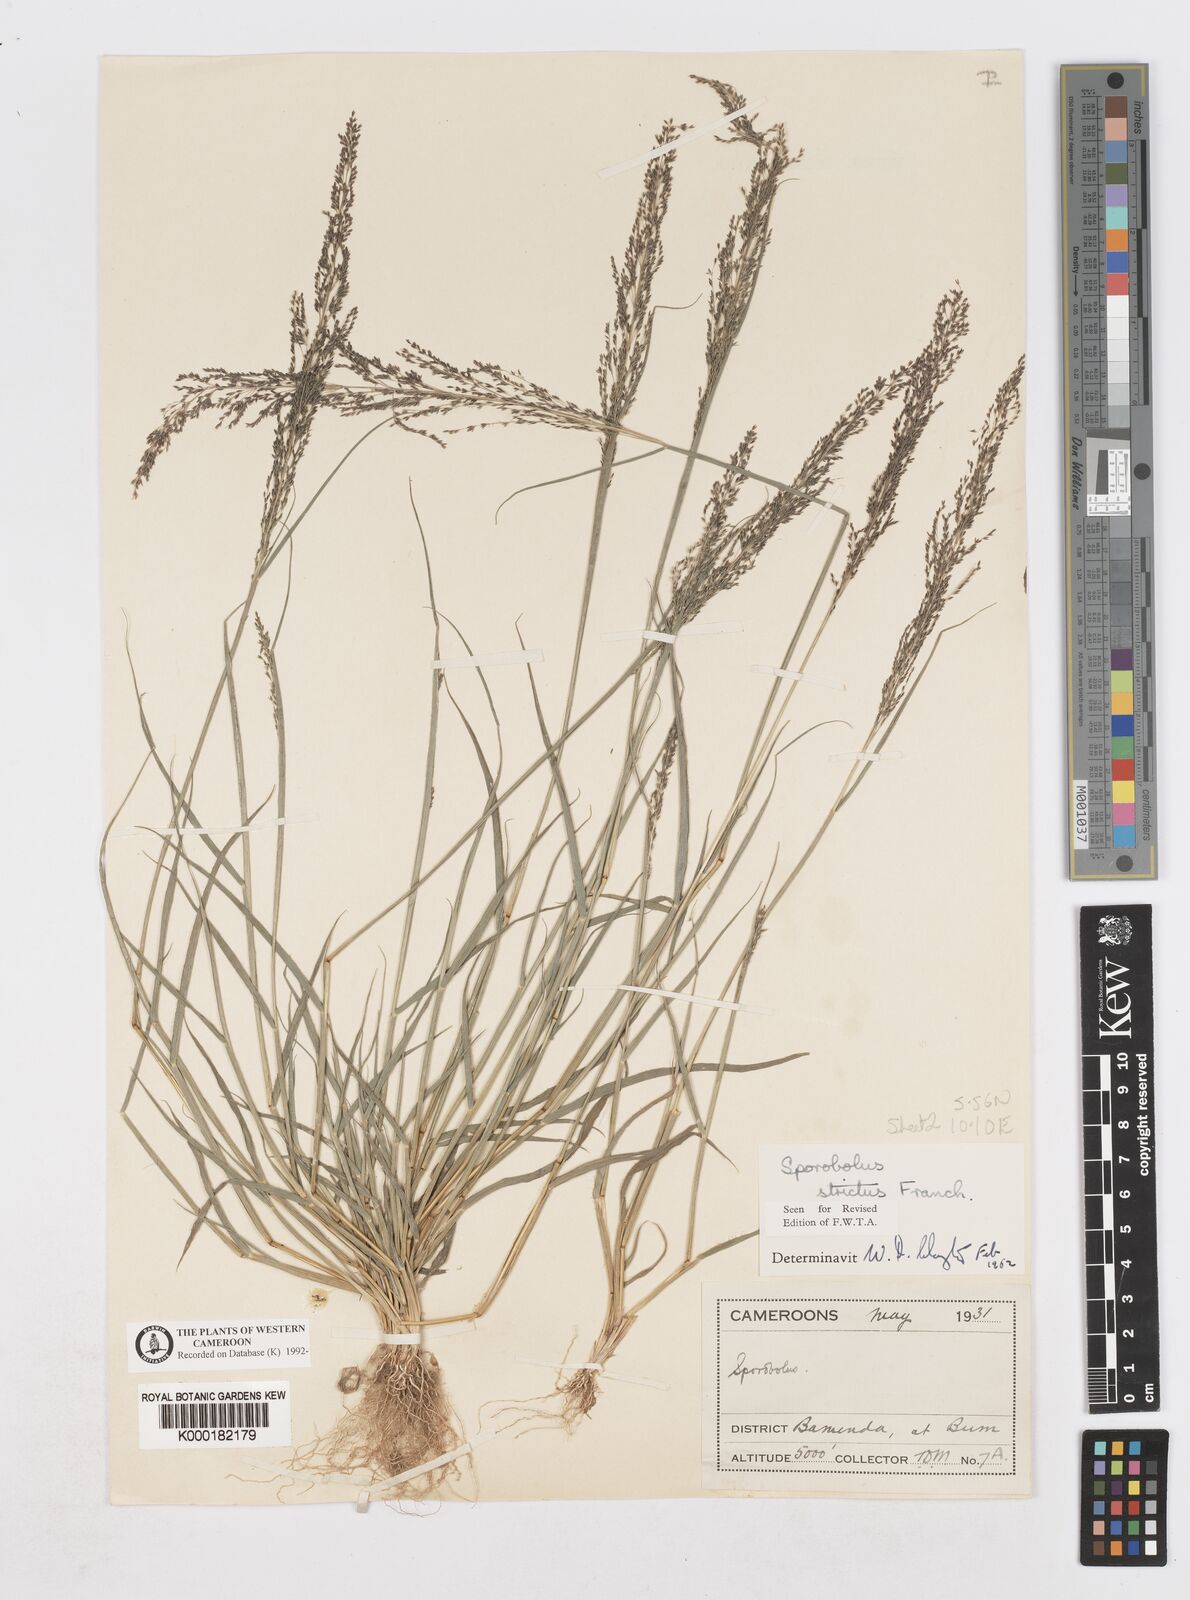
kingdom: Plantae
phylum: Tracheophyta
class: Liliopsida
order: Poales
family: Poaceae
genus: Sporobolus
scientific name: Sporobolus paniculatus
